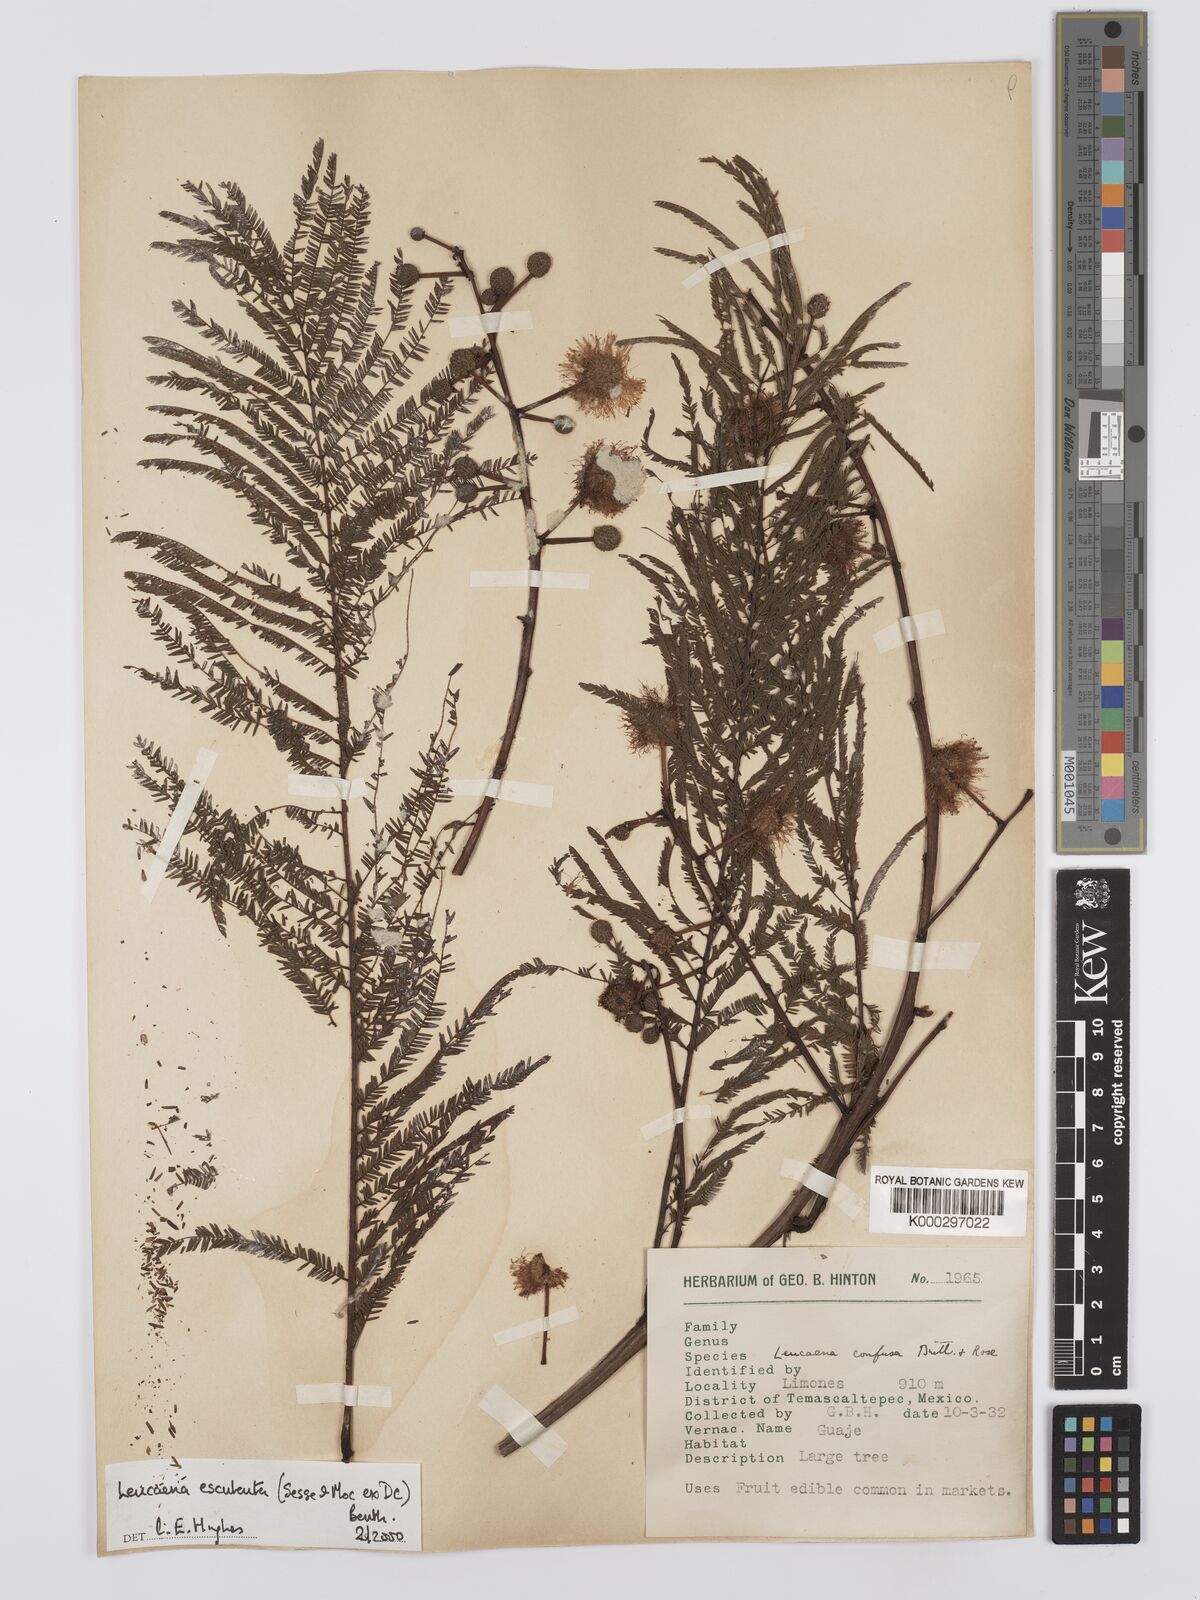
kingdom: Plantae
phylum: Tracheophyta
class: Magnoliopsida
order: Fabales
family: Fabaceae
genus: Leucaena
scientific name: Leucaena esculenta
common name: Guaje
